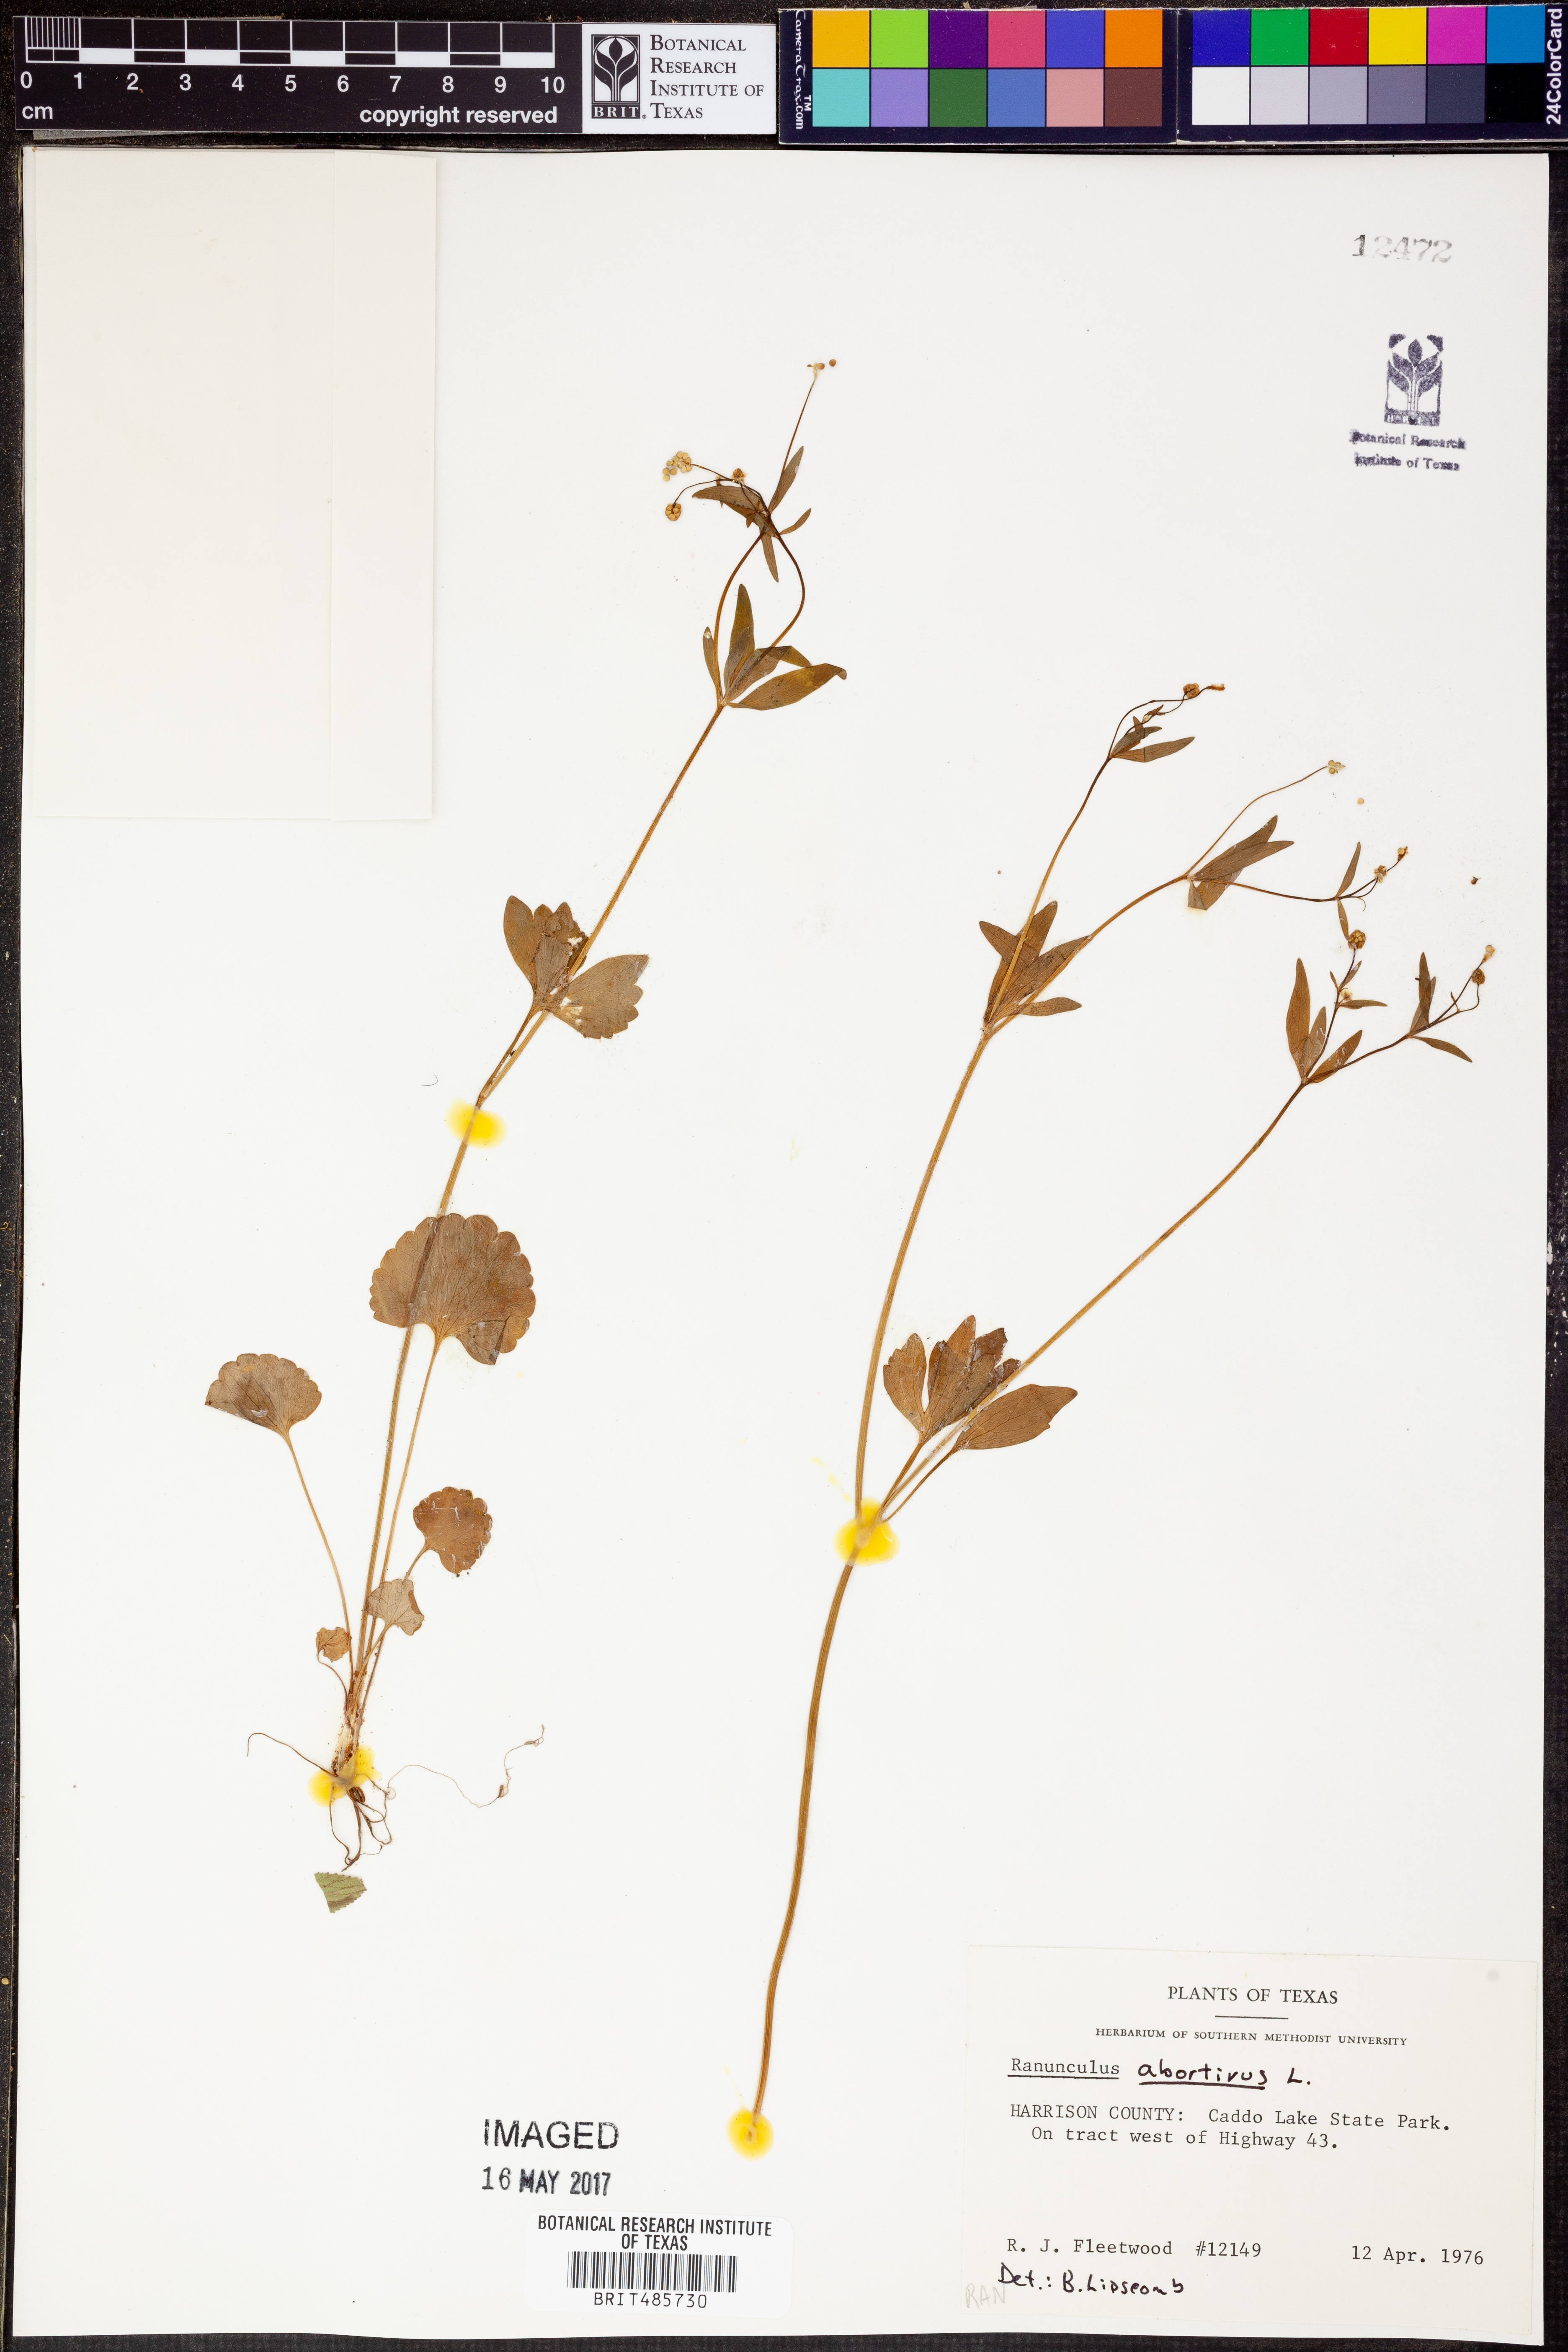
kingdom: Plantae
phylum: Tracheophyta
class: Magnoliopsida
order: Ranunculales
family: Ranunculaceae
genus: Ranunculus
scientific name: Ranunculus abortivus
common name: Early wood buttercup
